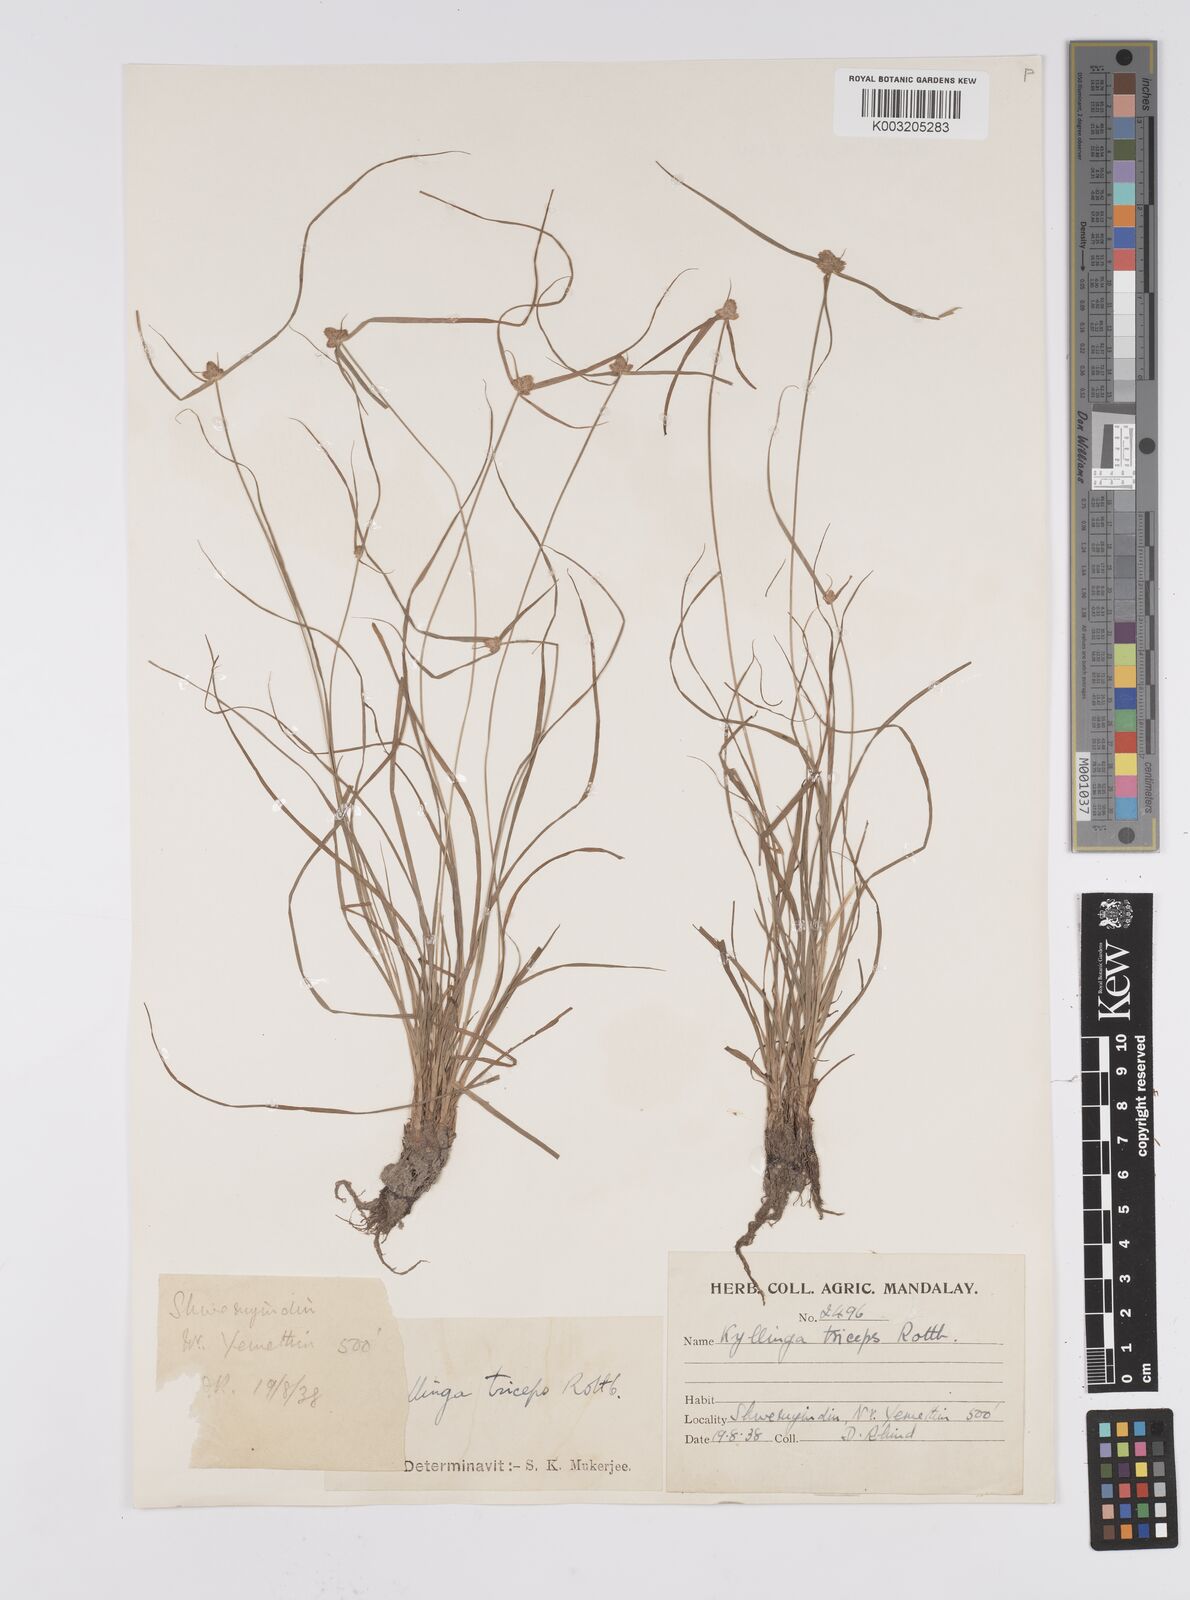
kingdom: Plantae
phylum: Tracheophyta
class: Liliopsida
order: Poales
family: Cyperaceae
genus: Cyperus
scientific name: Cyperus
